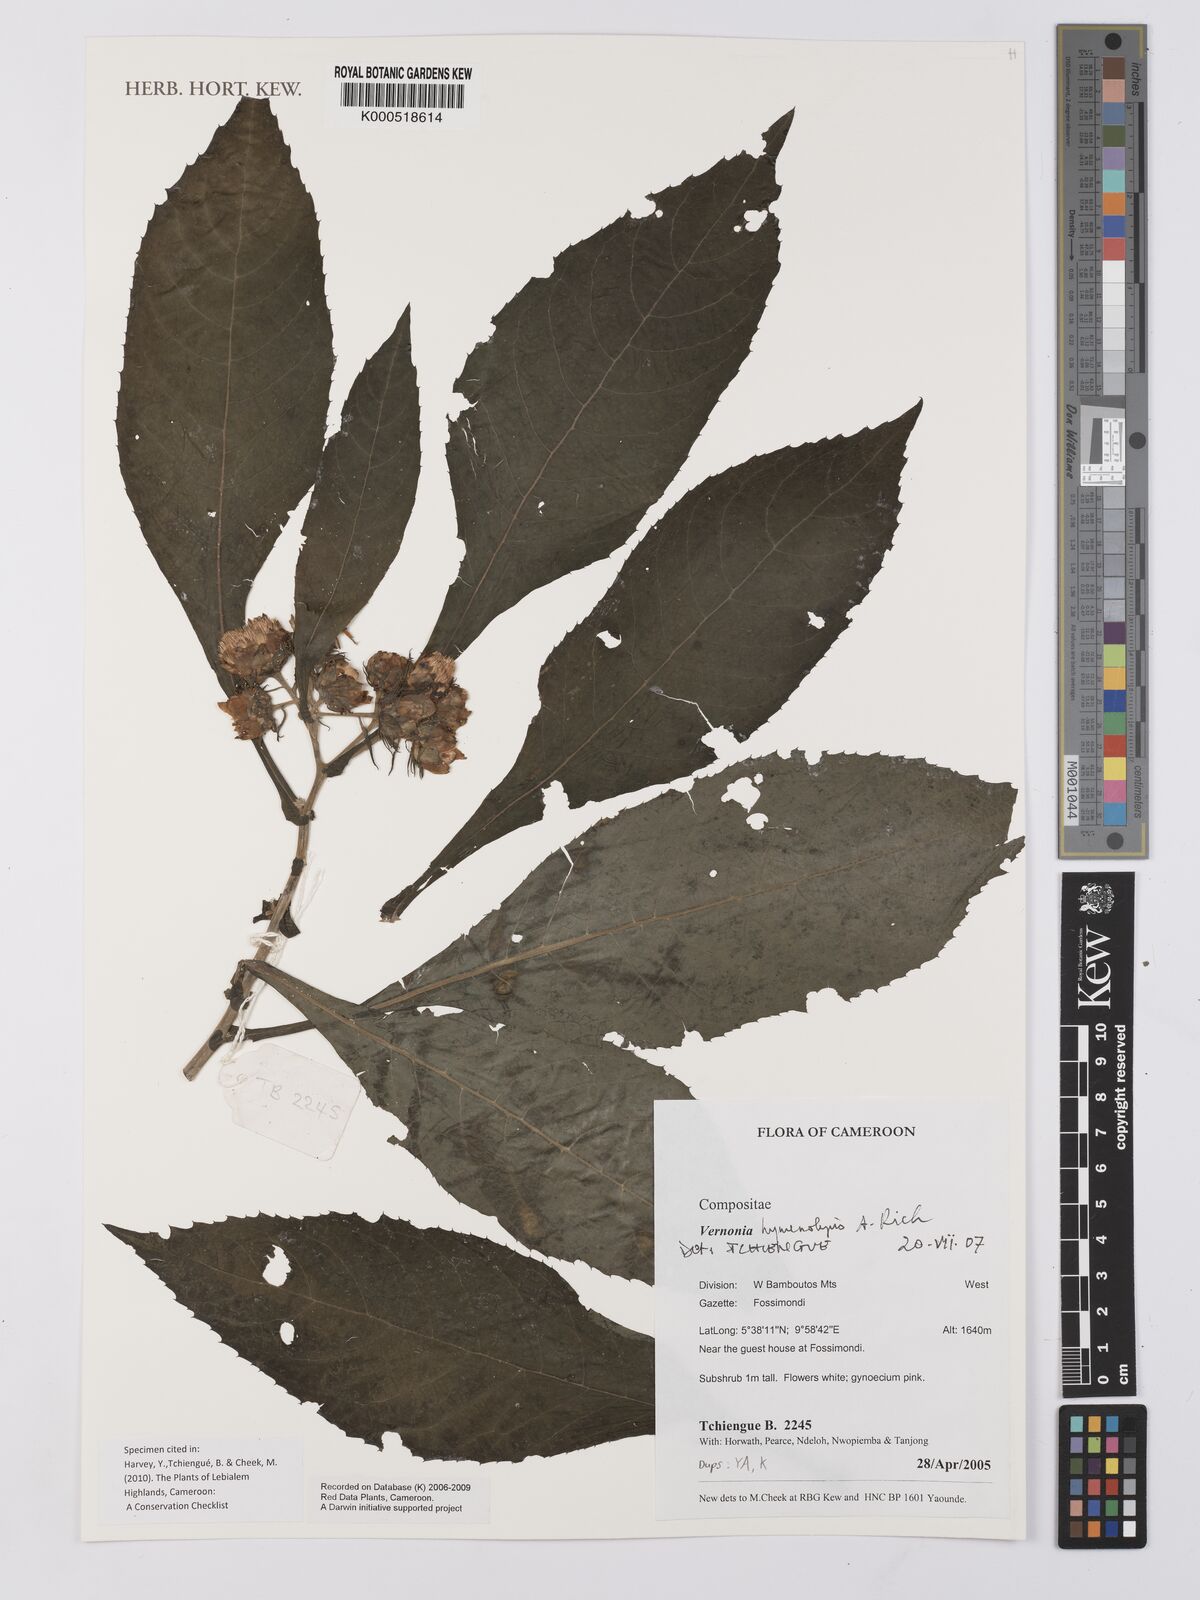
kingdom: Plantae
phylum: Tracheophyta
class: Magnoliopsida
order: Asterales
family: Asteraceae
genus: Baccharoides
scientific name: Baccharoides hymenolepis
